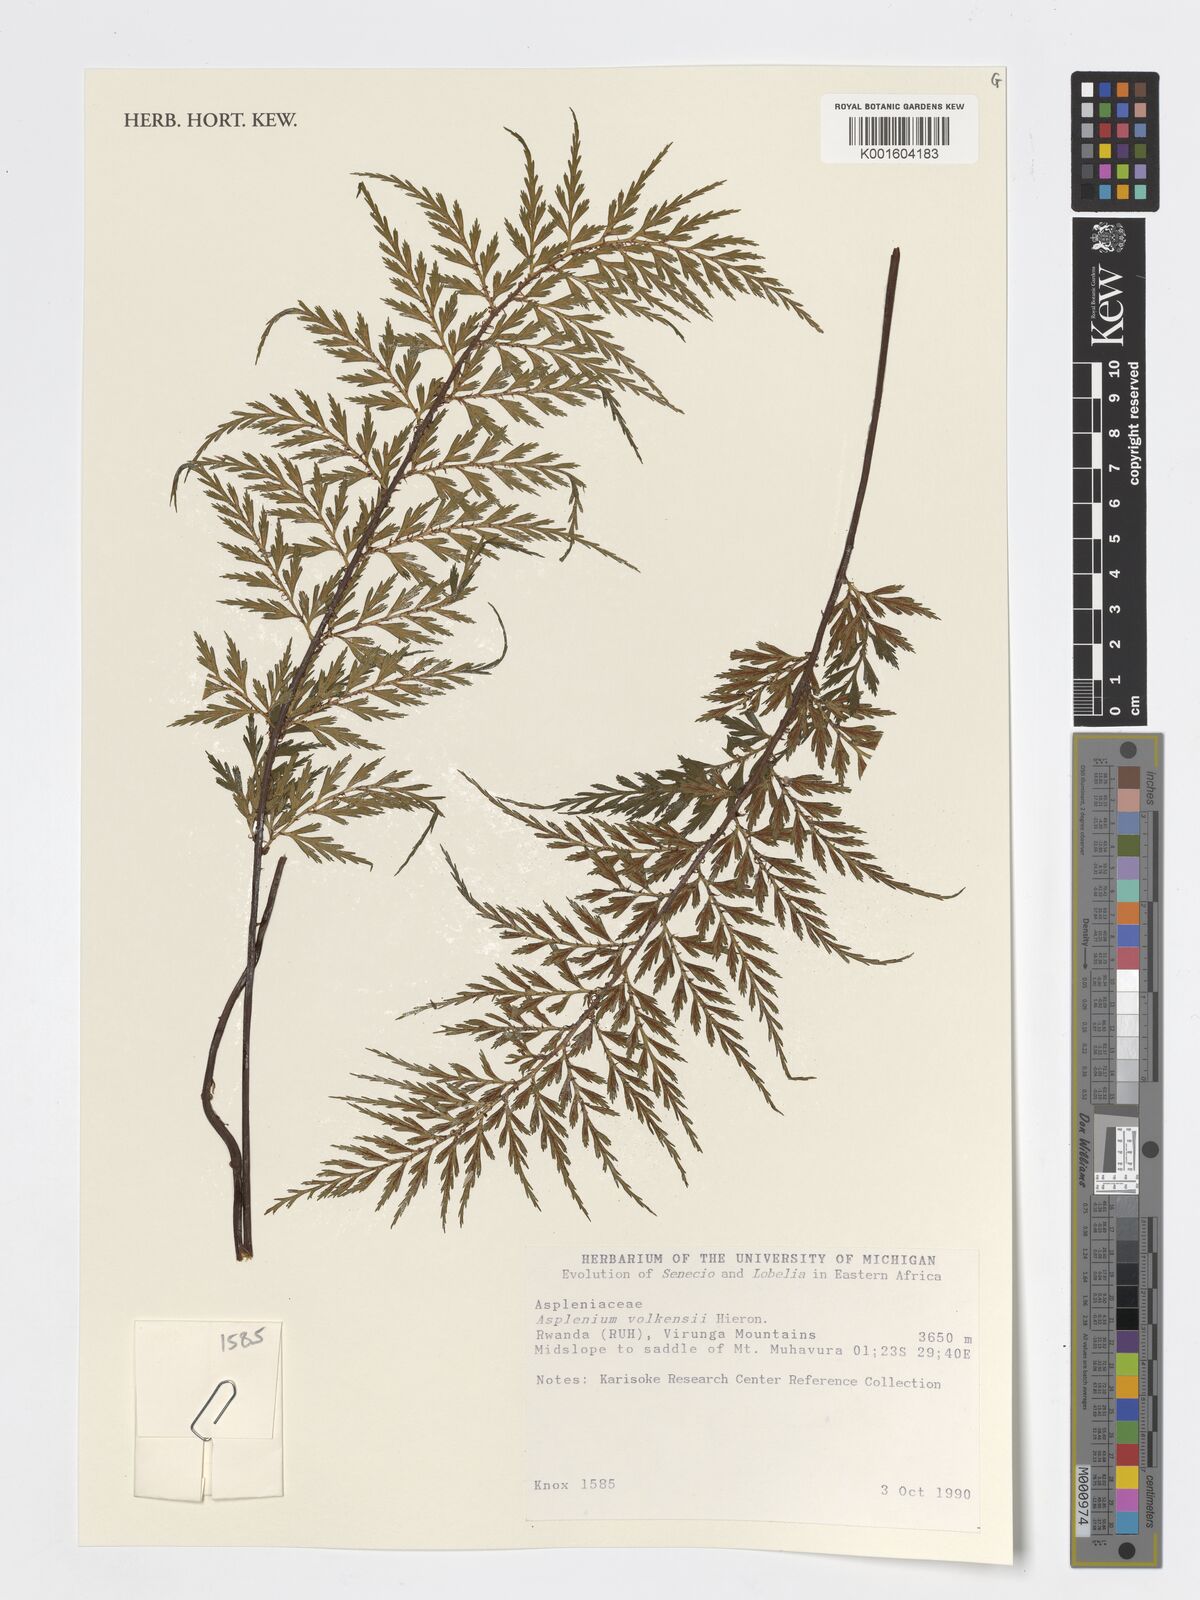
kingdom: Plantae
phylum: Tracheophyta
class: Polypodiopsida
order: Polypodiales
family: Aspleniaceae
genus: Asplenium
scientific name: Asplenium volkensii
